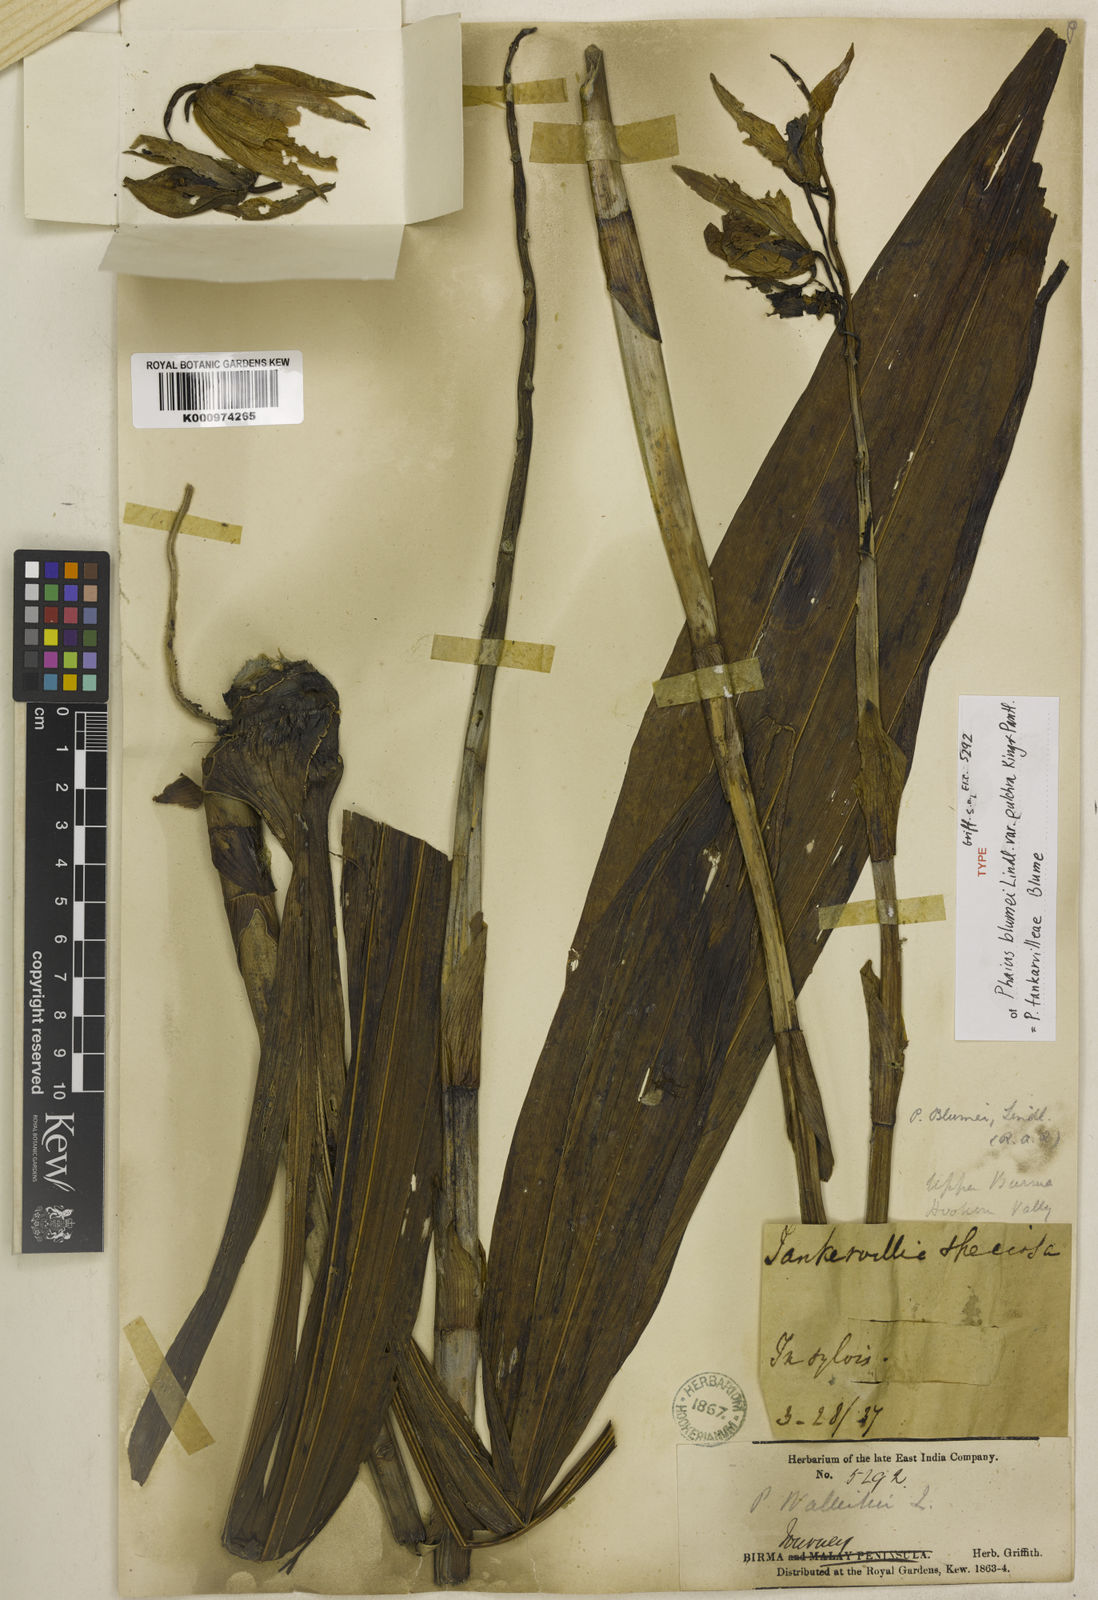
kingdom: Plantae
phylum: Tracheophyta
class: Liliopsida
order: Asparagales
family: Orchidaceae
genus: Calanthe
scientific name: Calanthe tankervilleae
